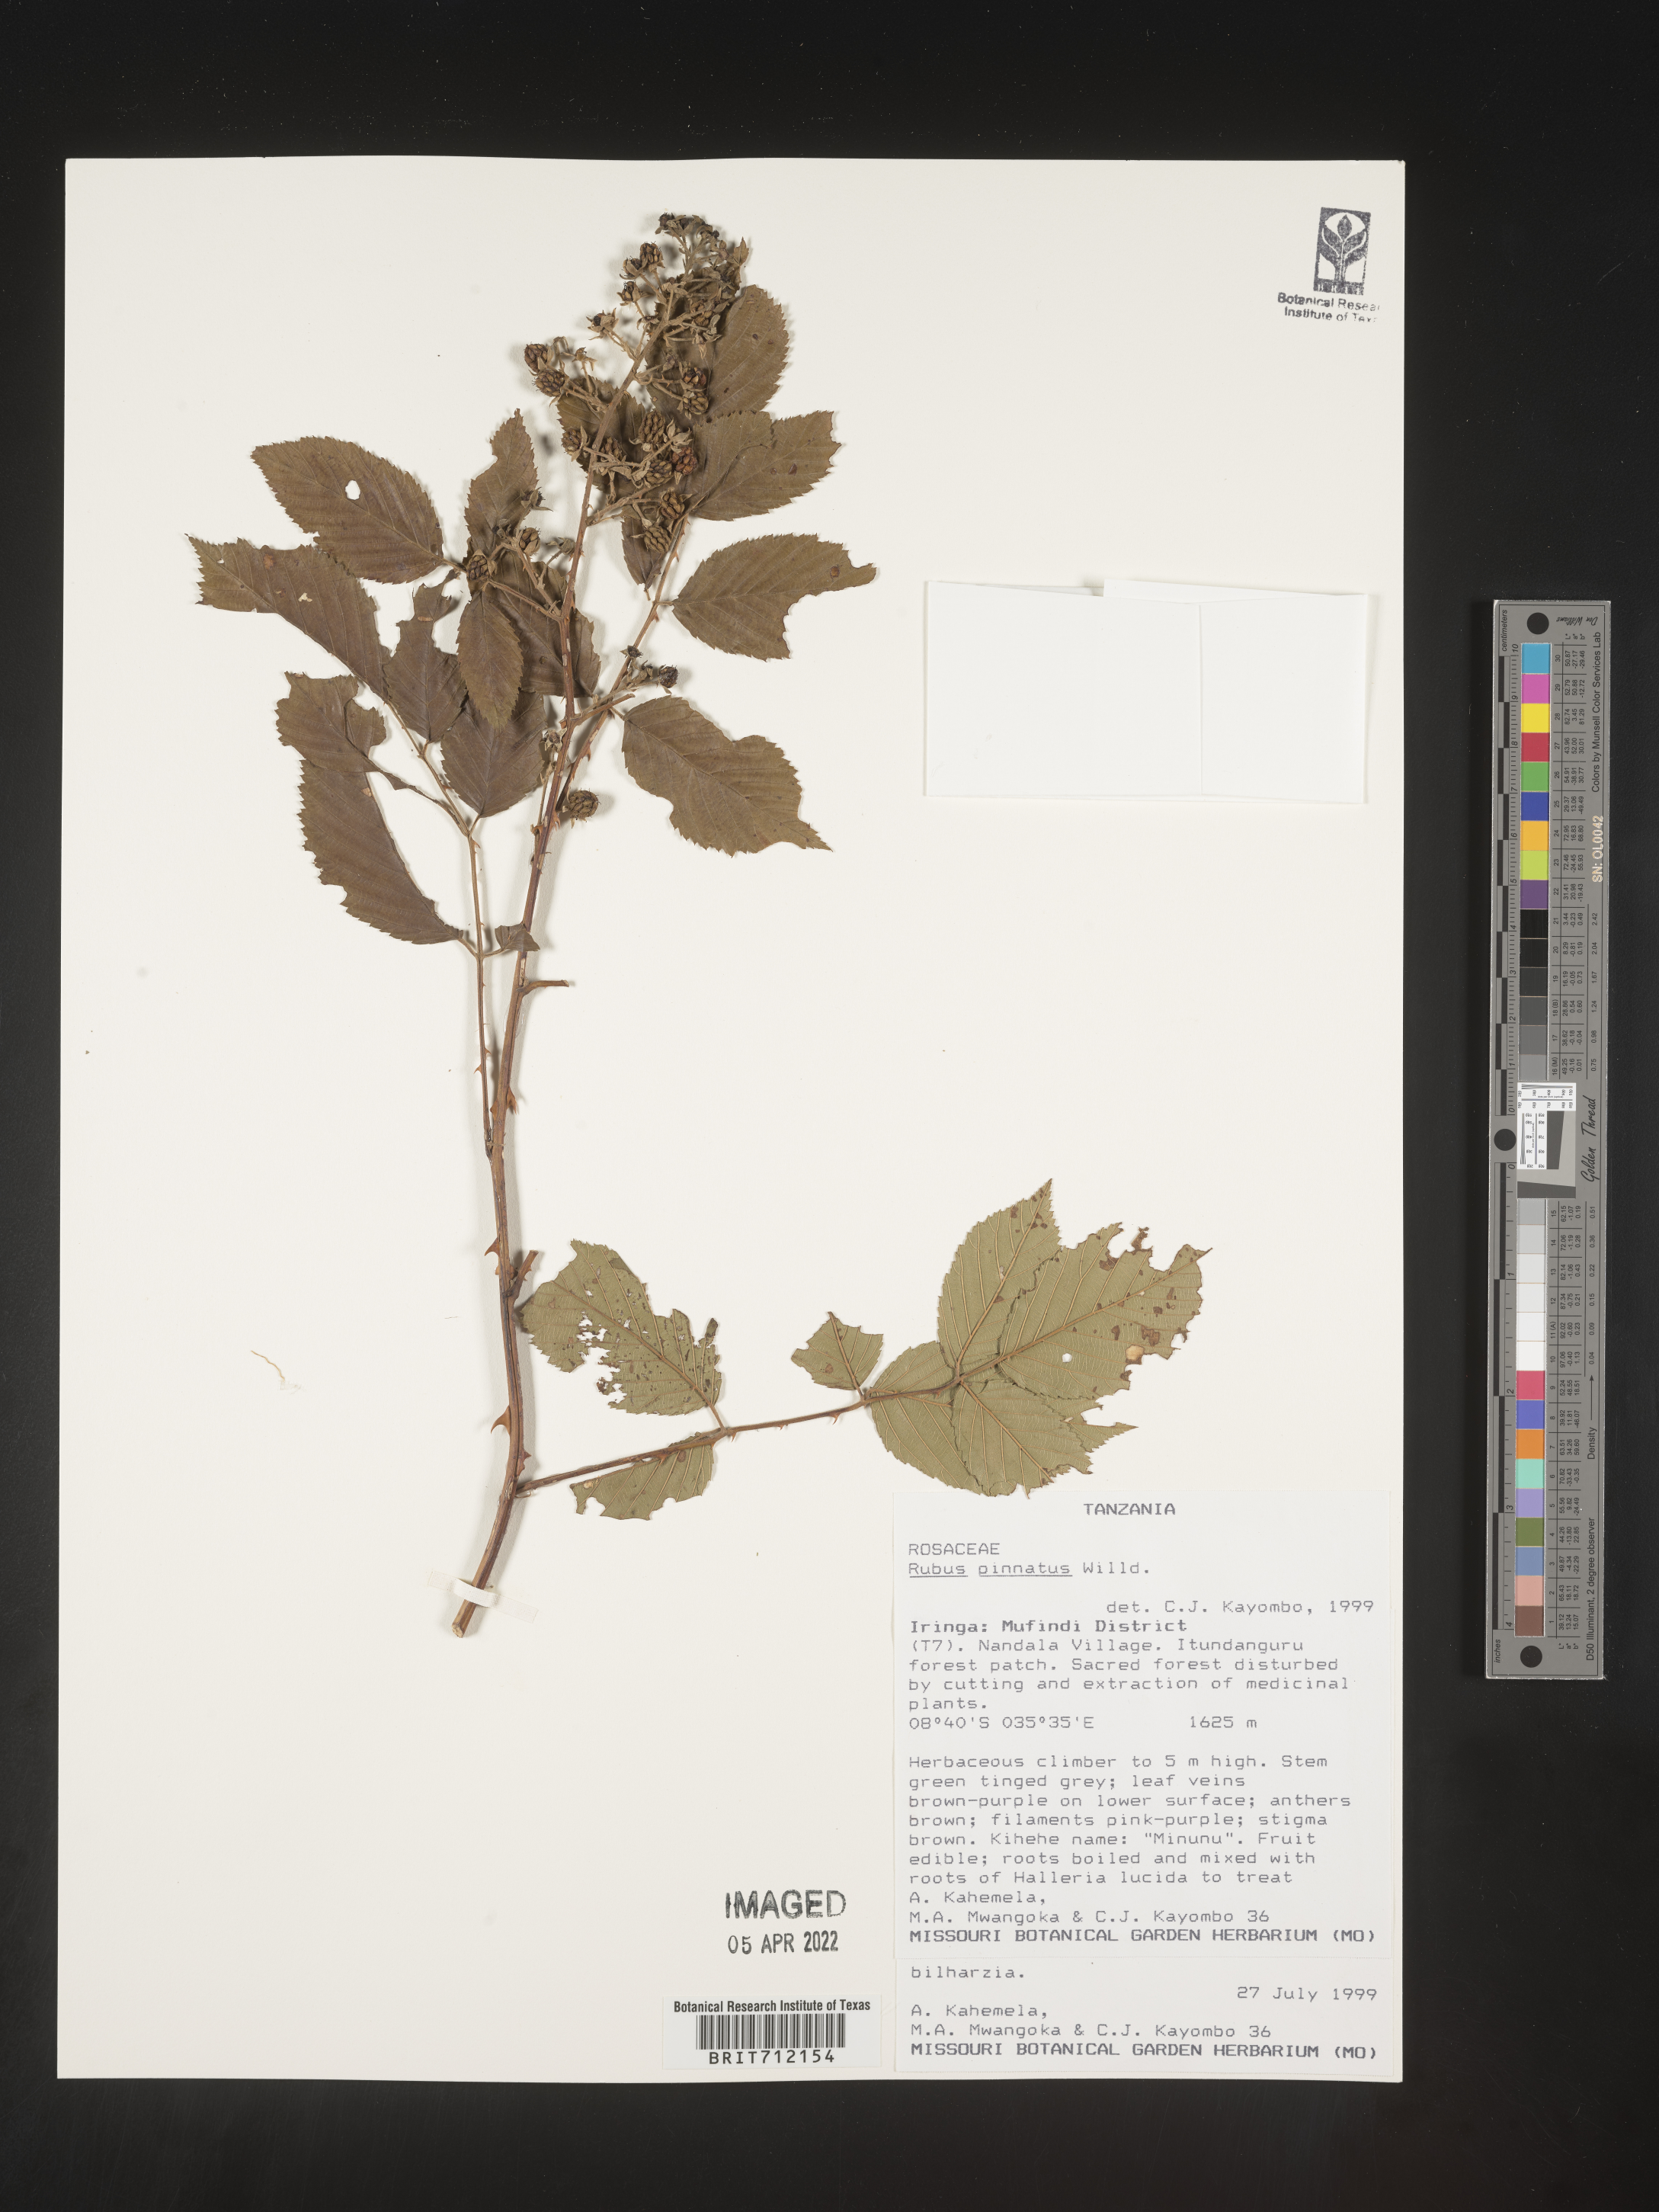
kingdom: Plantae
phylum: Tracheophyta
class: Magnoliopsida
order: Rosales
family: Rosaceae
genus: Rubus
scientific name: Rubus
